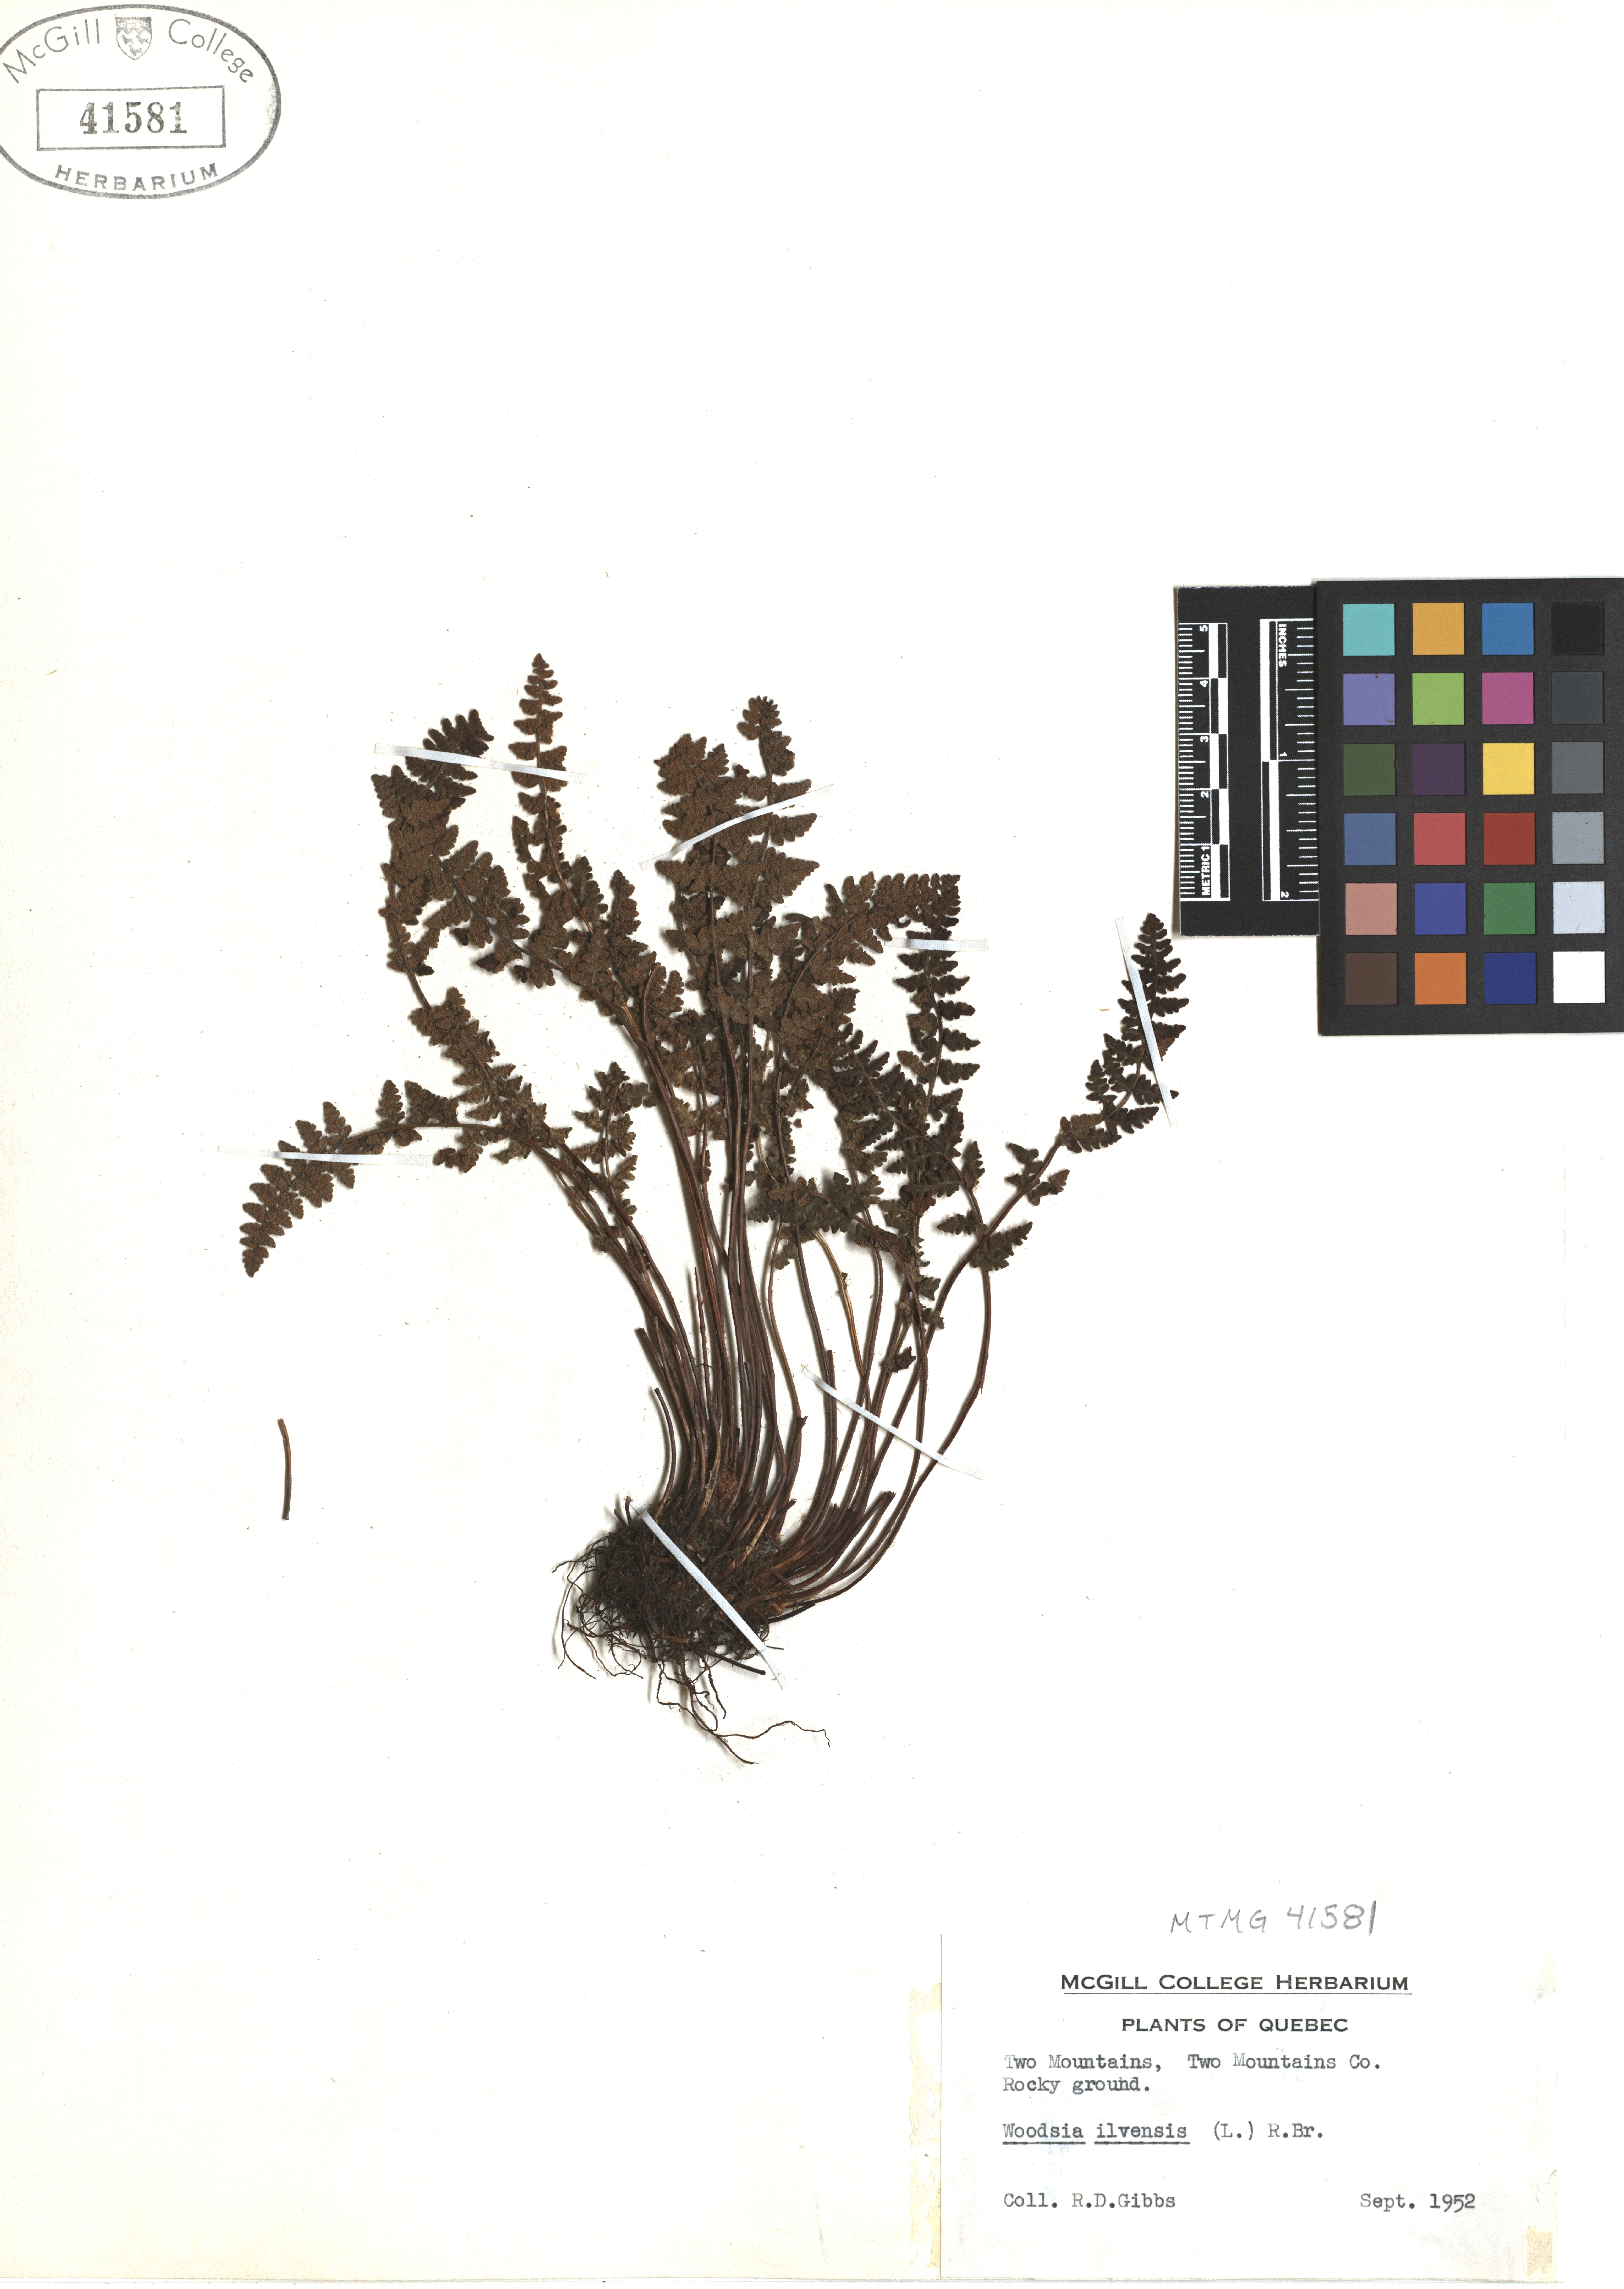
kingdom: Plantae
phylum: Tracheophyta
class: Liliopsida
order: Liliales
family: Colchicaceae
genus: Uvularia
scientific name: Uvularia grandiflora
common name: Bellwort
